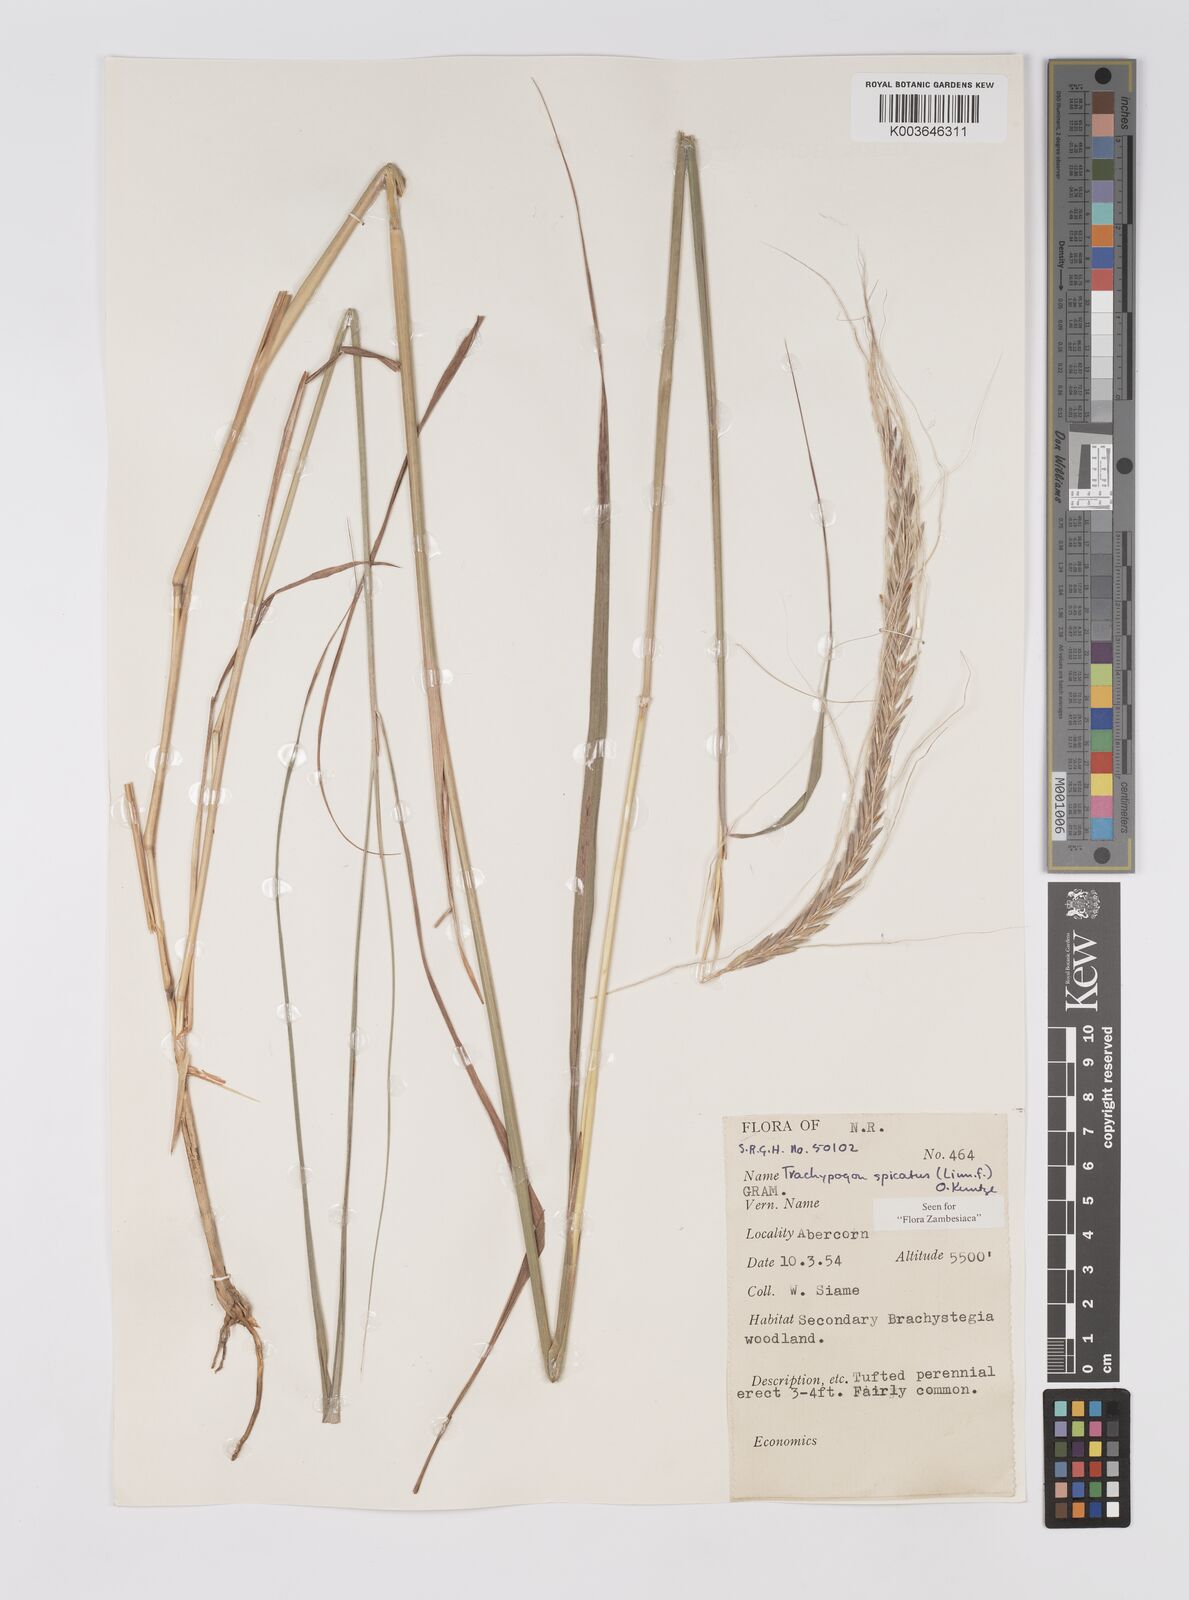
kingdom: Plantae
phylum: Tracheophyta
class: Liliopsida
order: Poales
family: Poaceae
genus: Trachypogon
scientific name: Trachypogon spicatus
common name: Crinkle-awn
